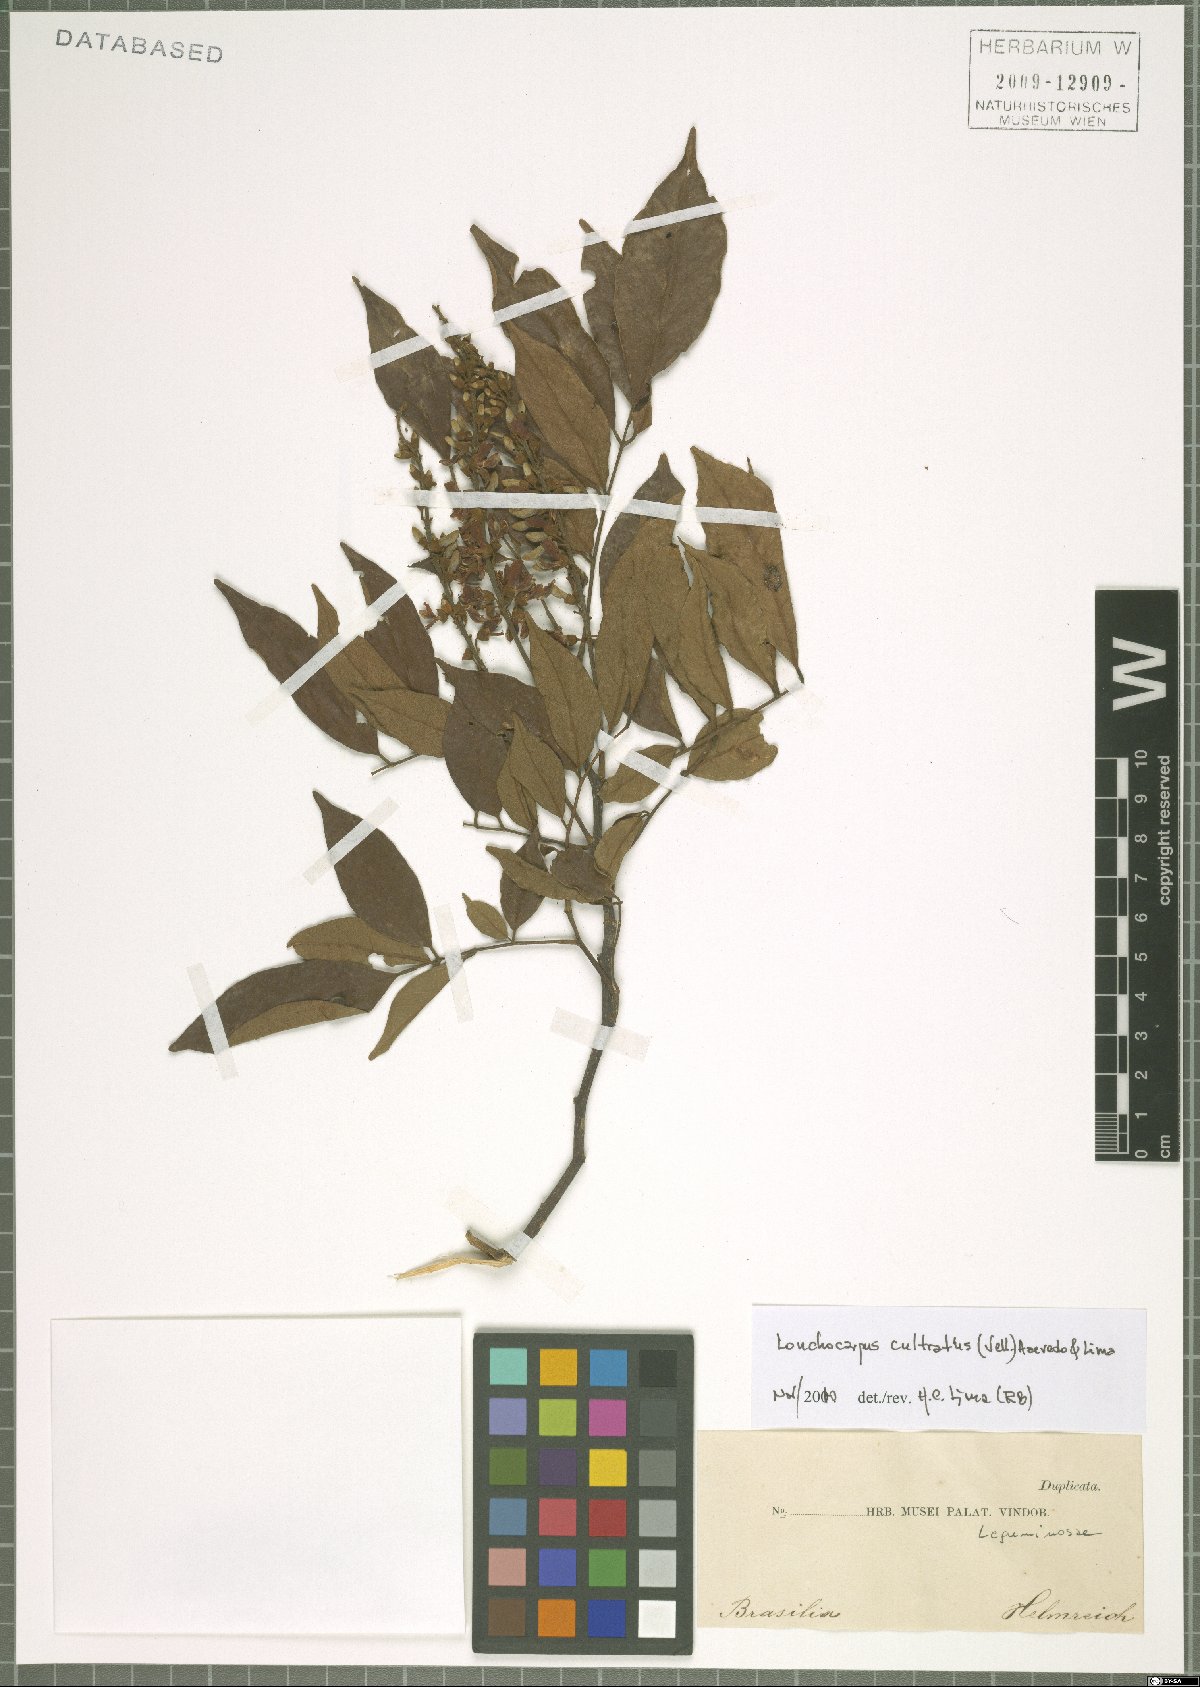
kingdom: Plantae
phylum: Tracheophyta
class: Magnoliopsida
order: Fabales
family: Fabaceae
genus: Lonchocarpus
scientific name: Lonchocarpus cultratus
